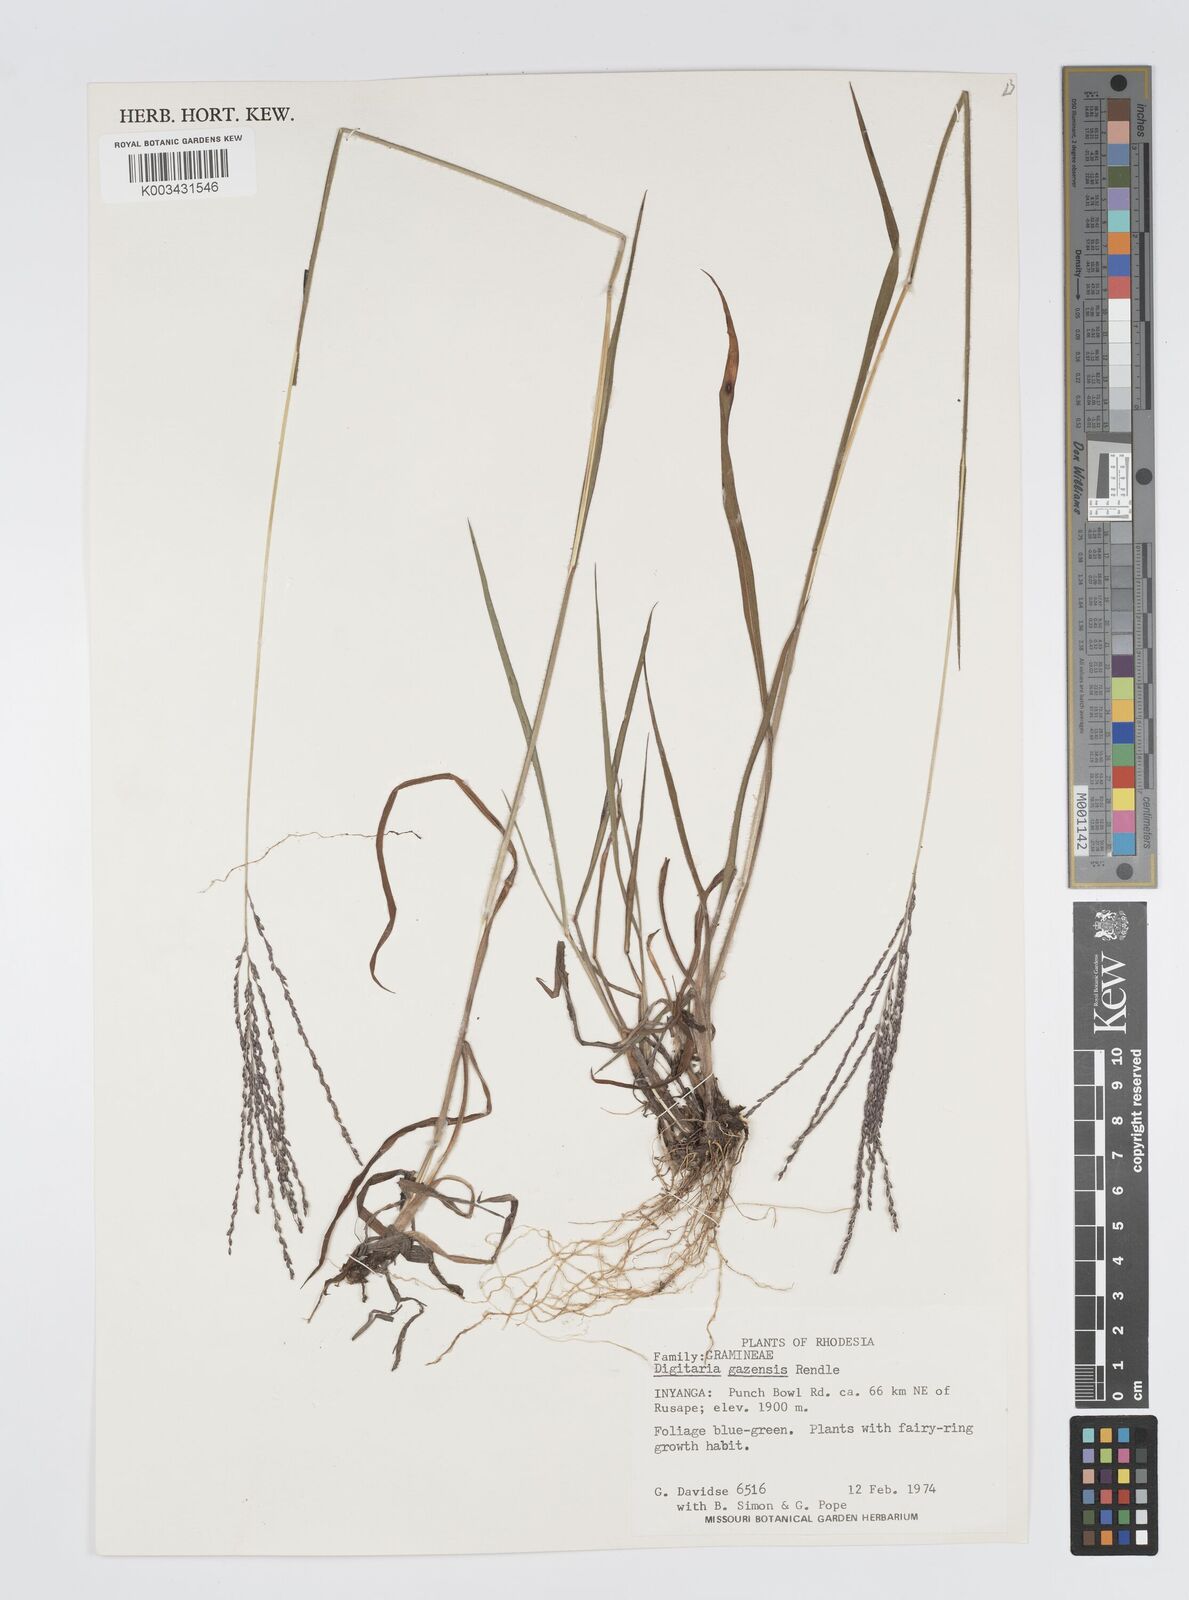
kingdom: Plantae
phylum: Tracheophyta
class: Liliopsida
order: Poales
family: Poaceae
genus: Digitaria
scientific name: Digitaria gazensis
